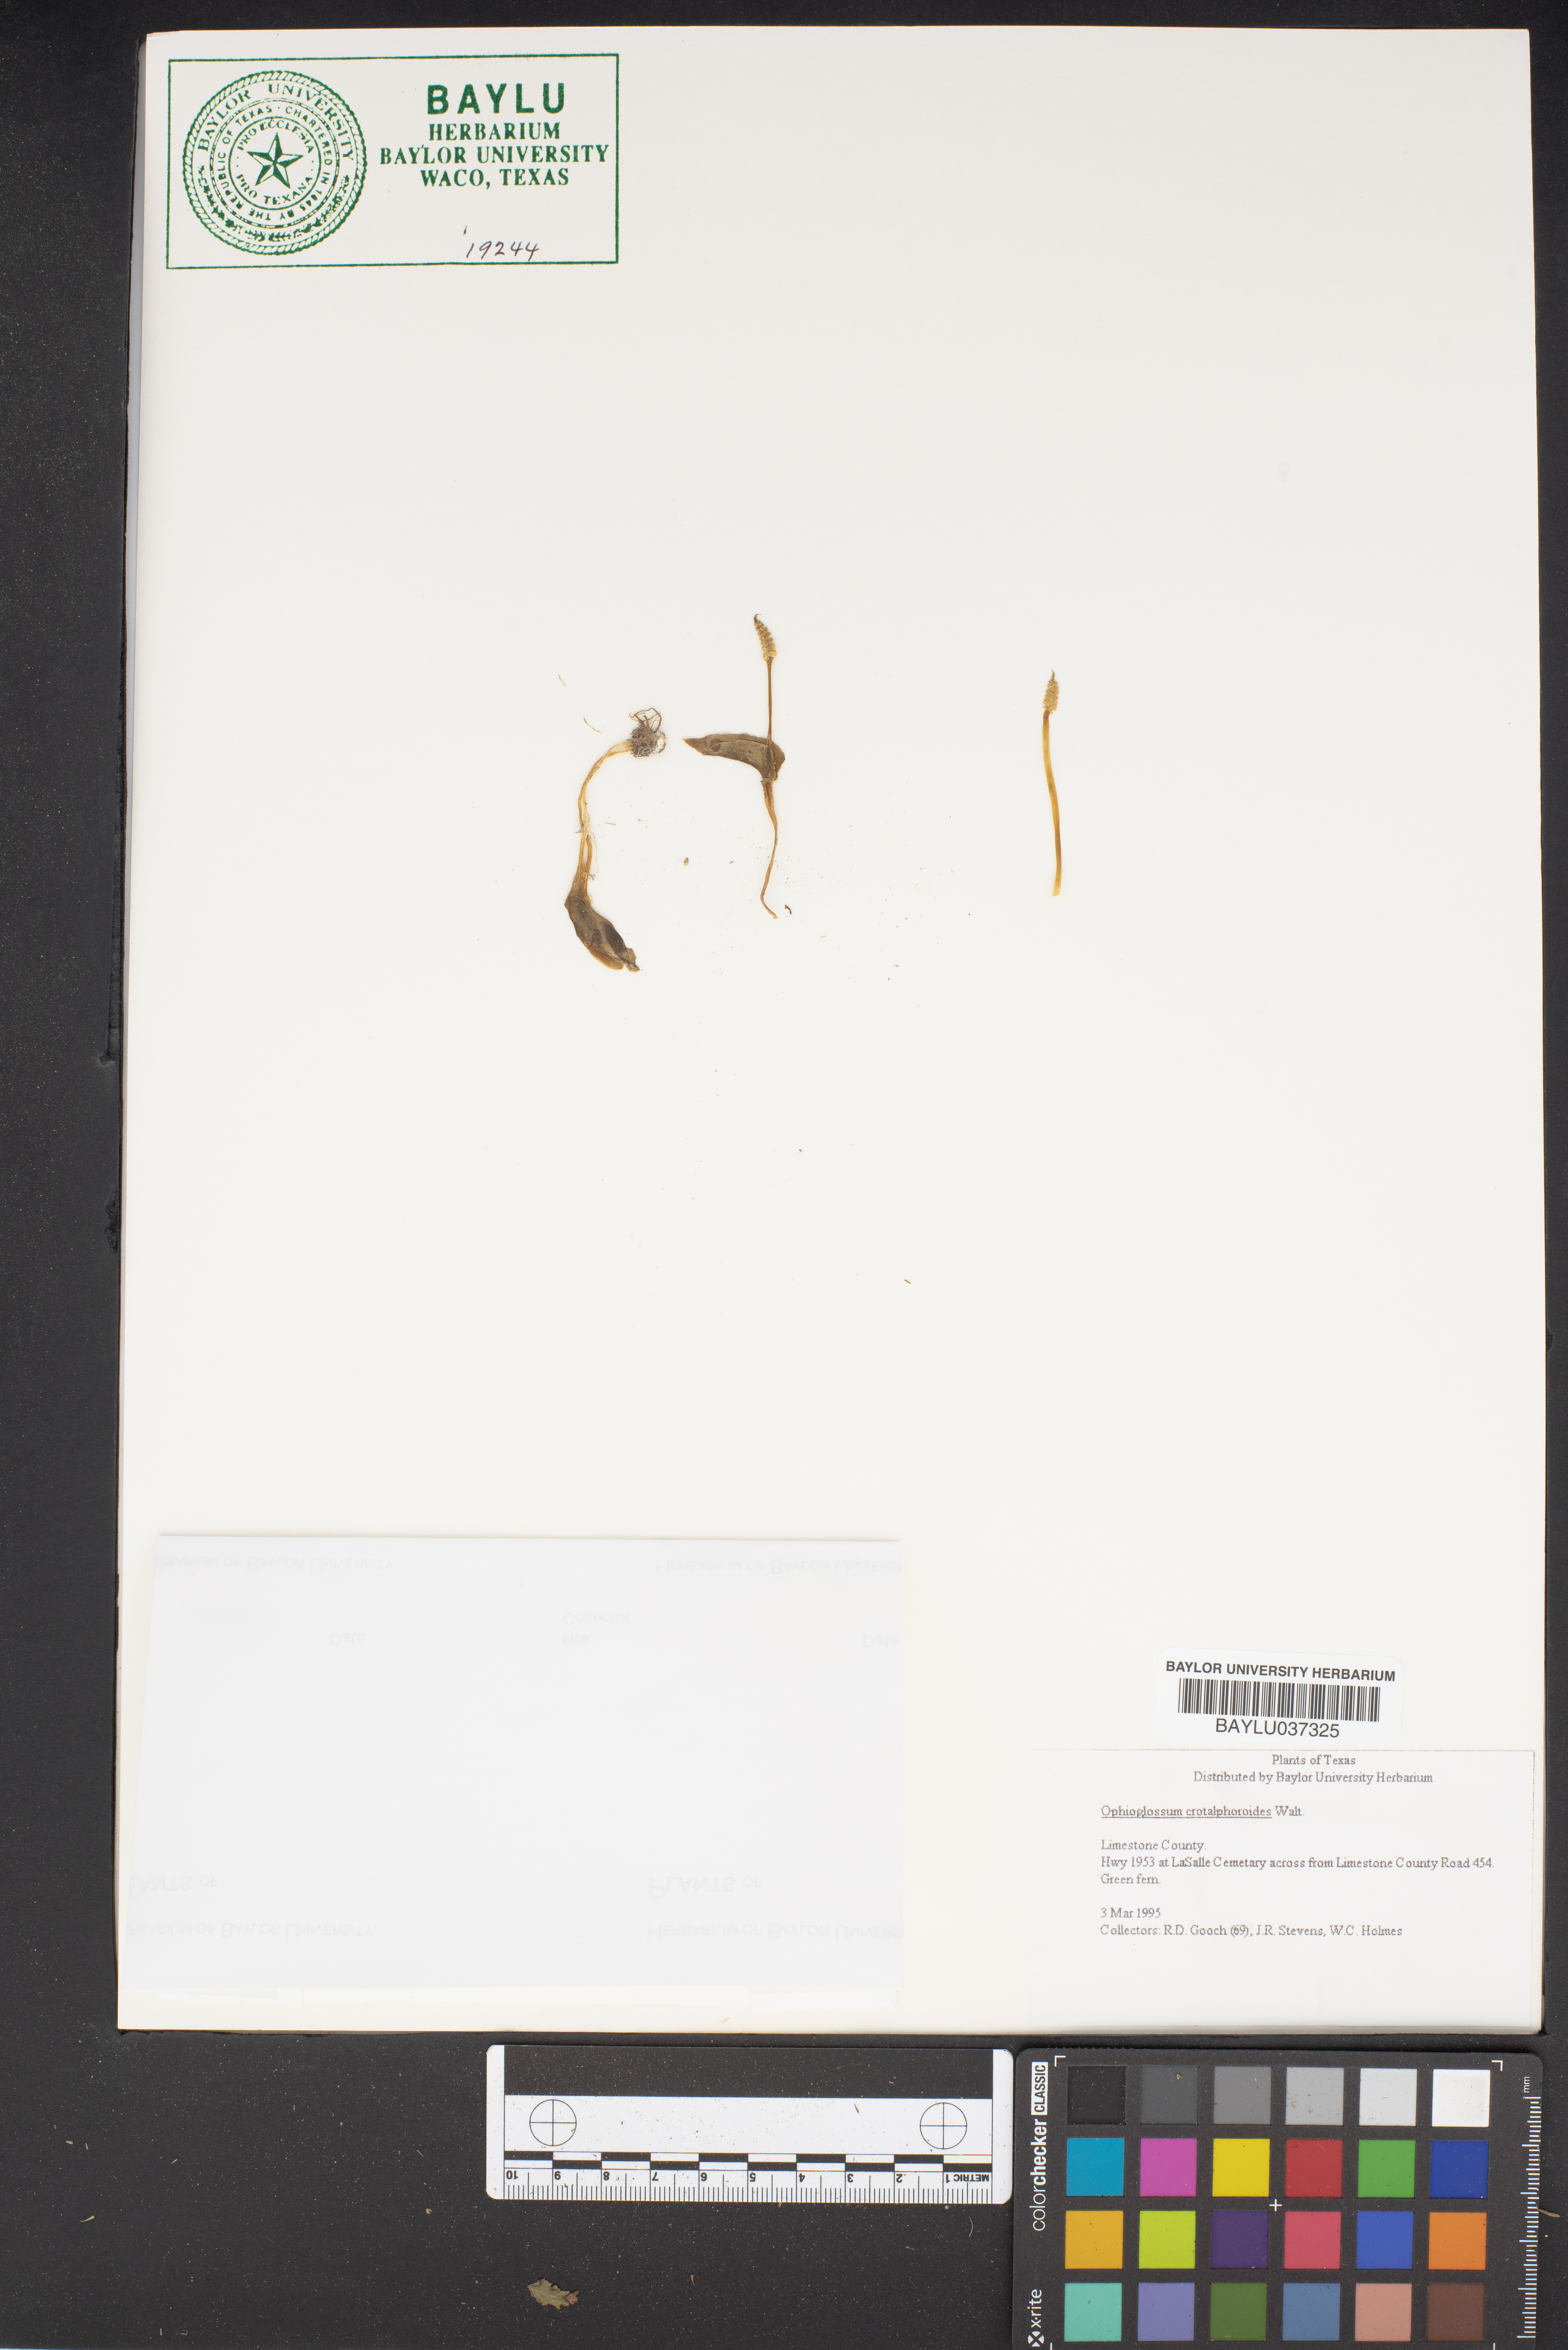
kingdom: Plantae
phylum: Tracheophyta
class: Polypodiopsida
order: Ophioglossales
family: Ophioglossaceae
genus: Ophioglossum
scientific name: Ophioglossum crotalophoroides
